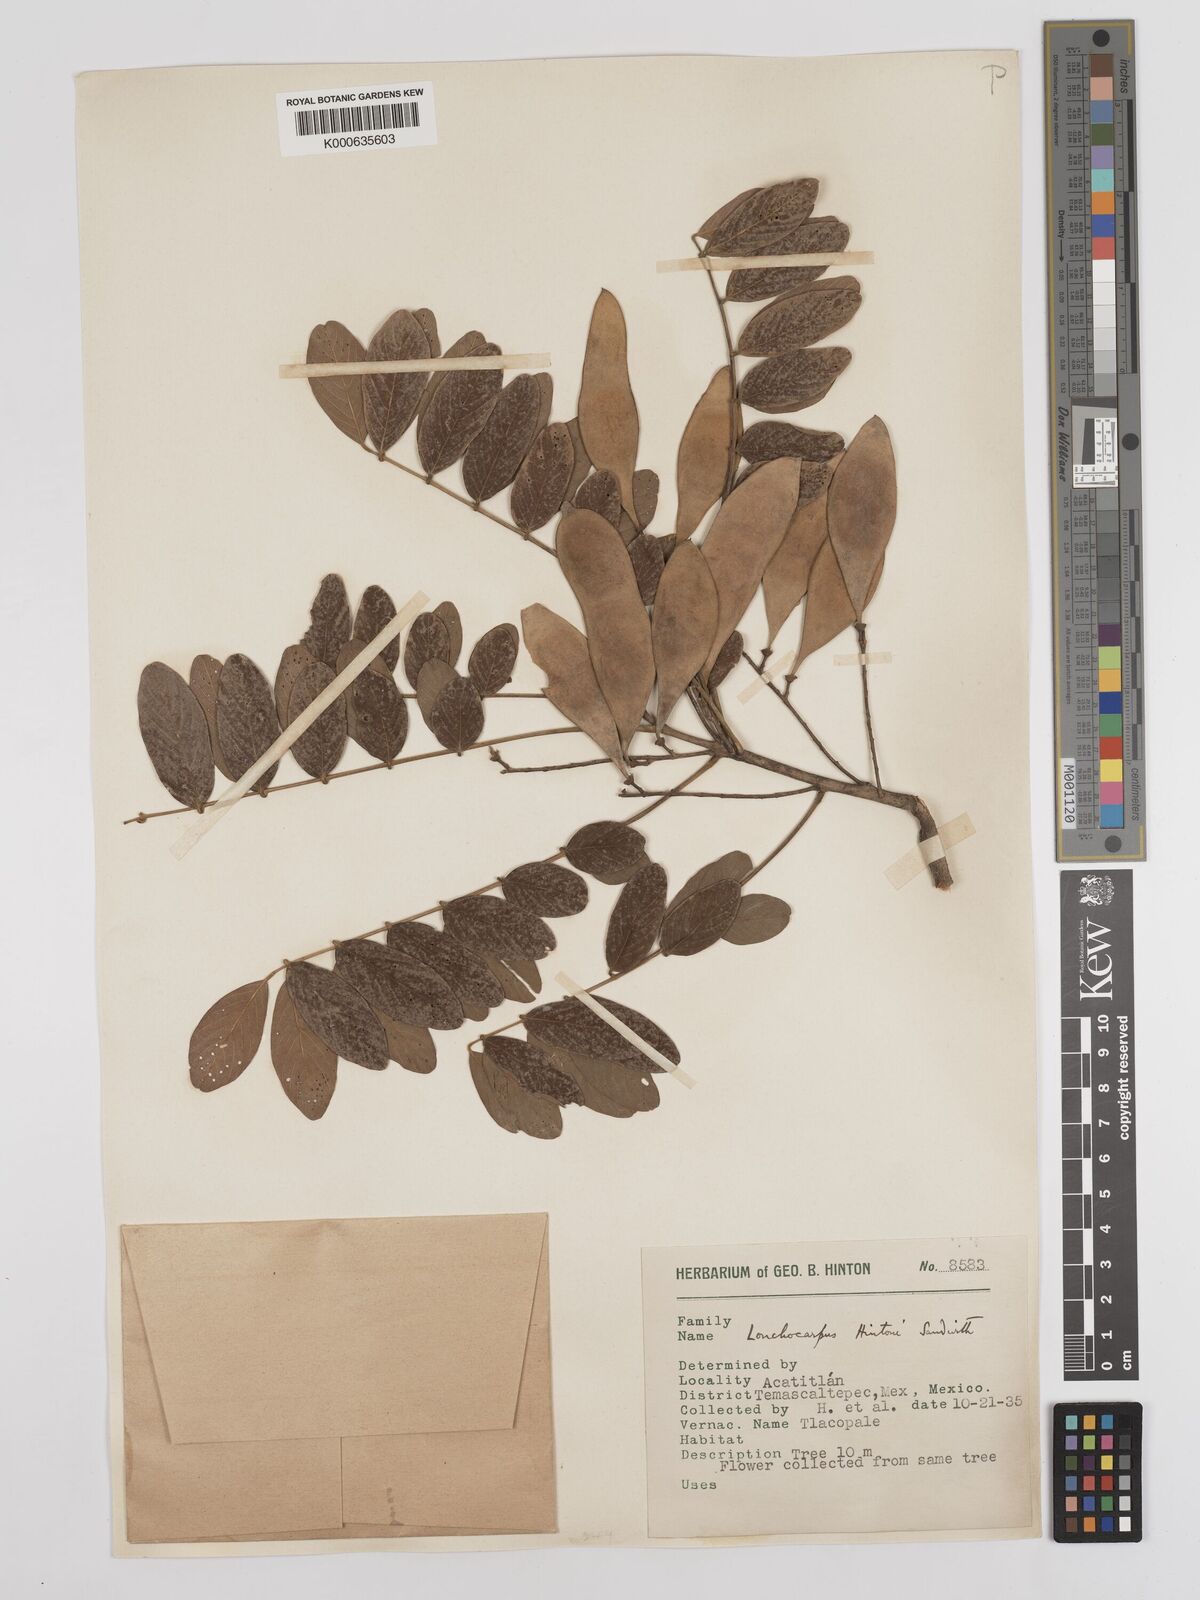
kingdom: Plantae
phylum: Tracheophyta
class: Magnoliopsida
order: Fabales
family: Fabaceae
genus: Lonchocarpus
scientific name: Lonchocarpus hintonii
